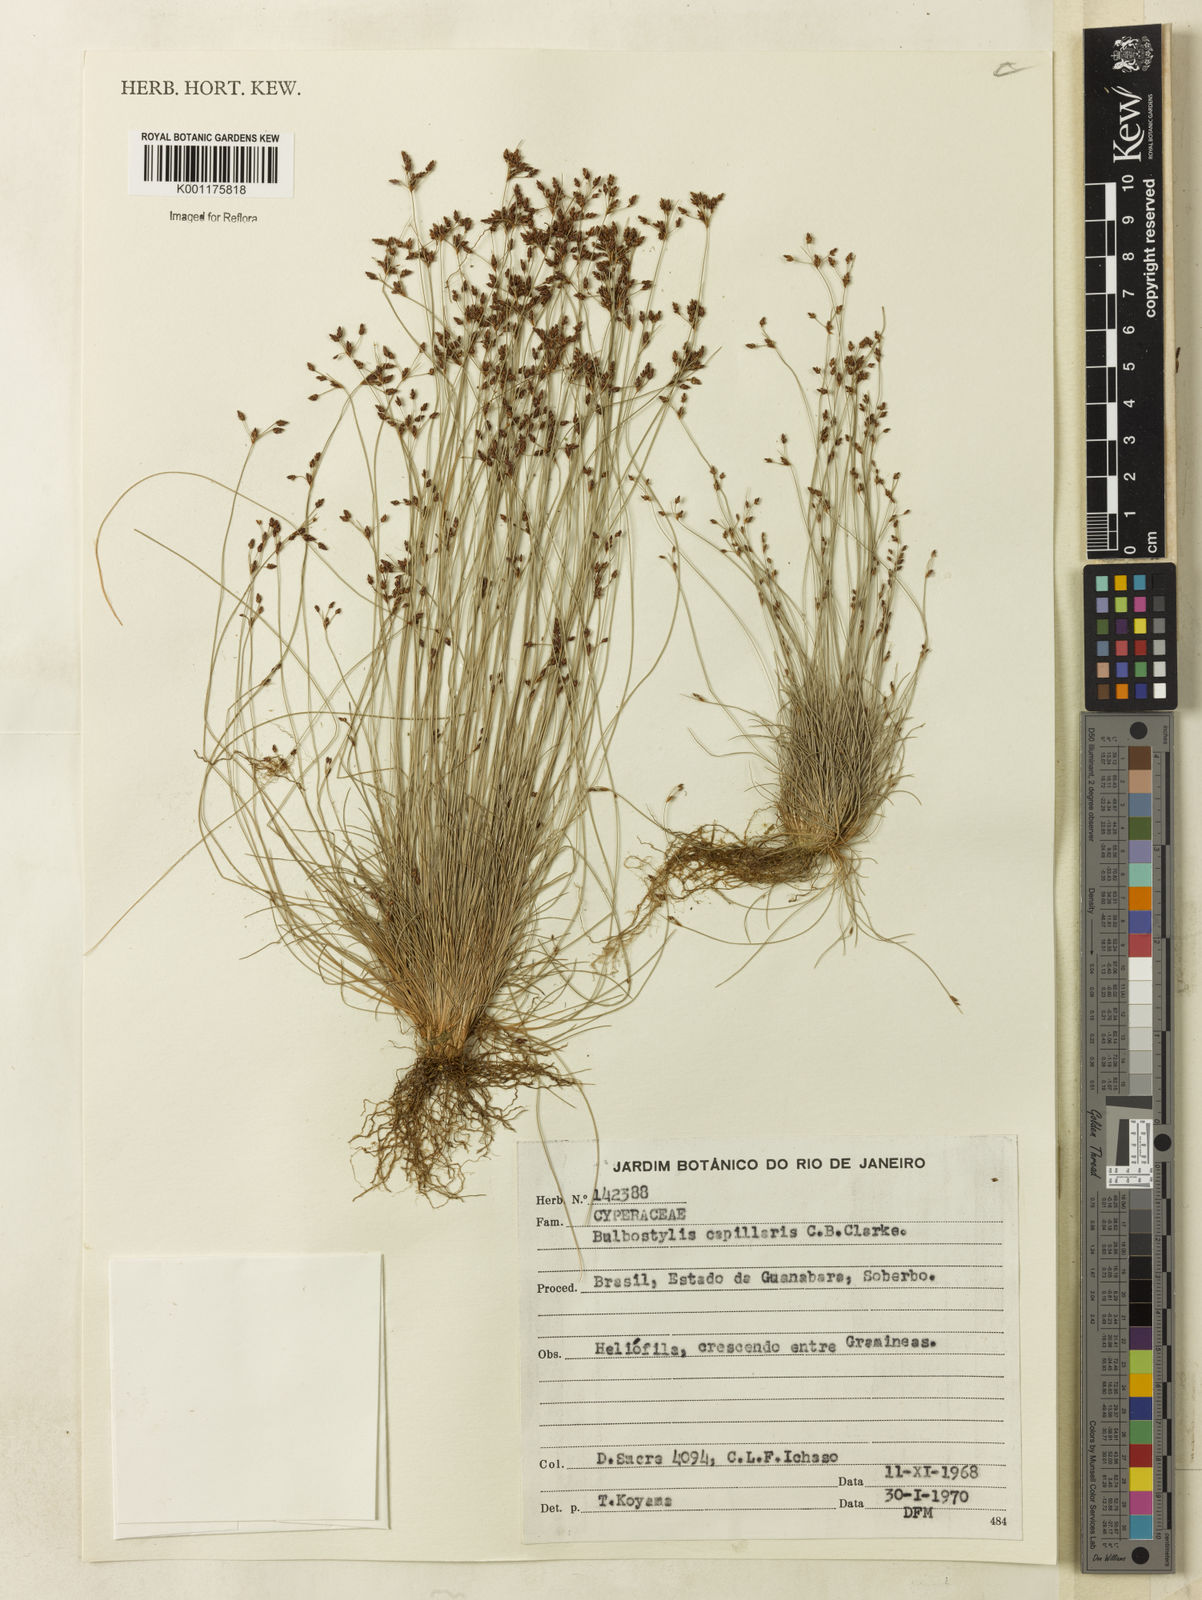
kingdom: Plantae
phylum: Tracheophyta
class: Liliopsida
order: Poales
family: Cyperaceae
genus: Bulbostylis
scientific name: Bulbostylis capillaris
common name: Densetuft hairsedge
